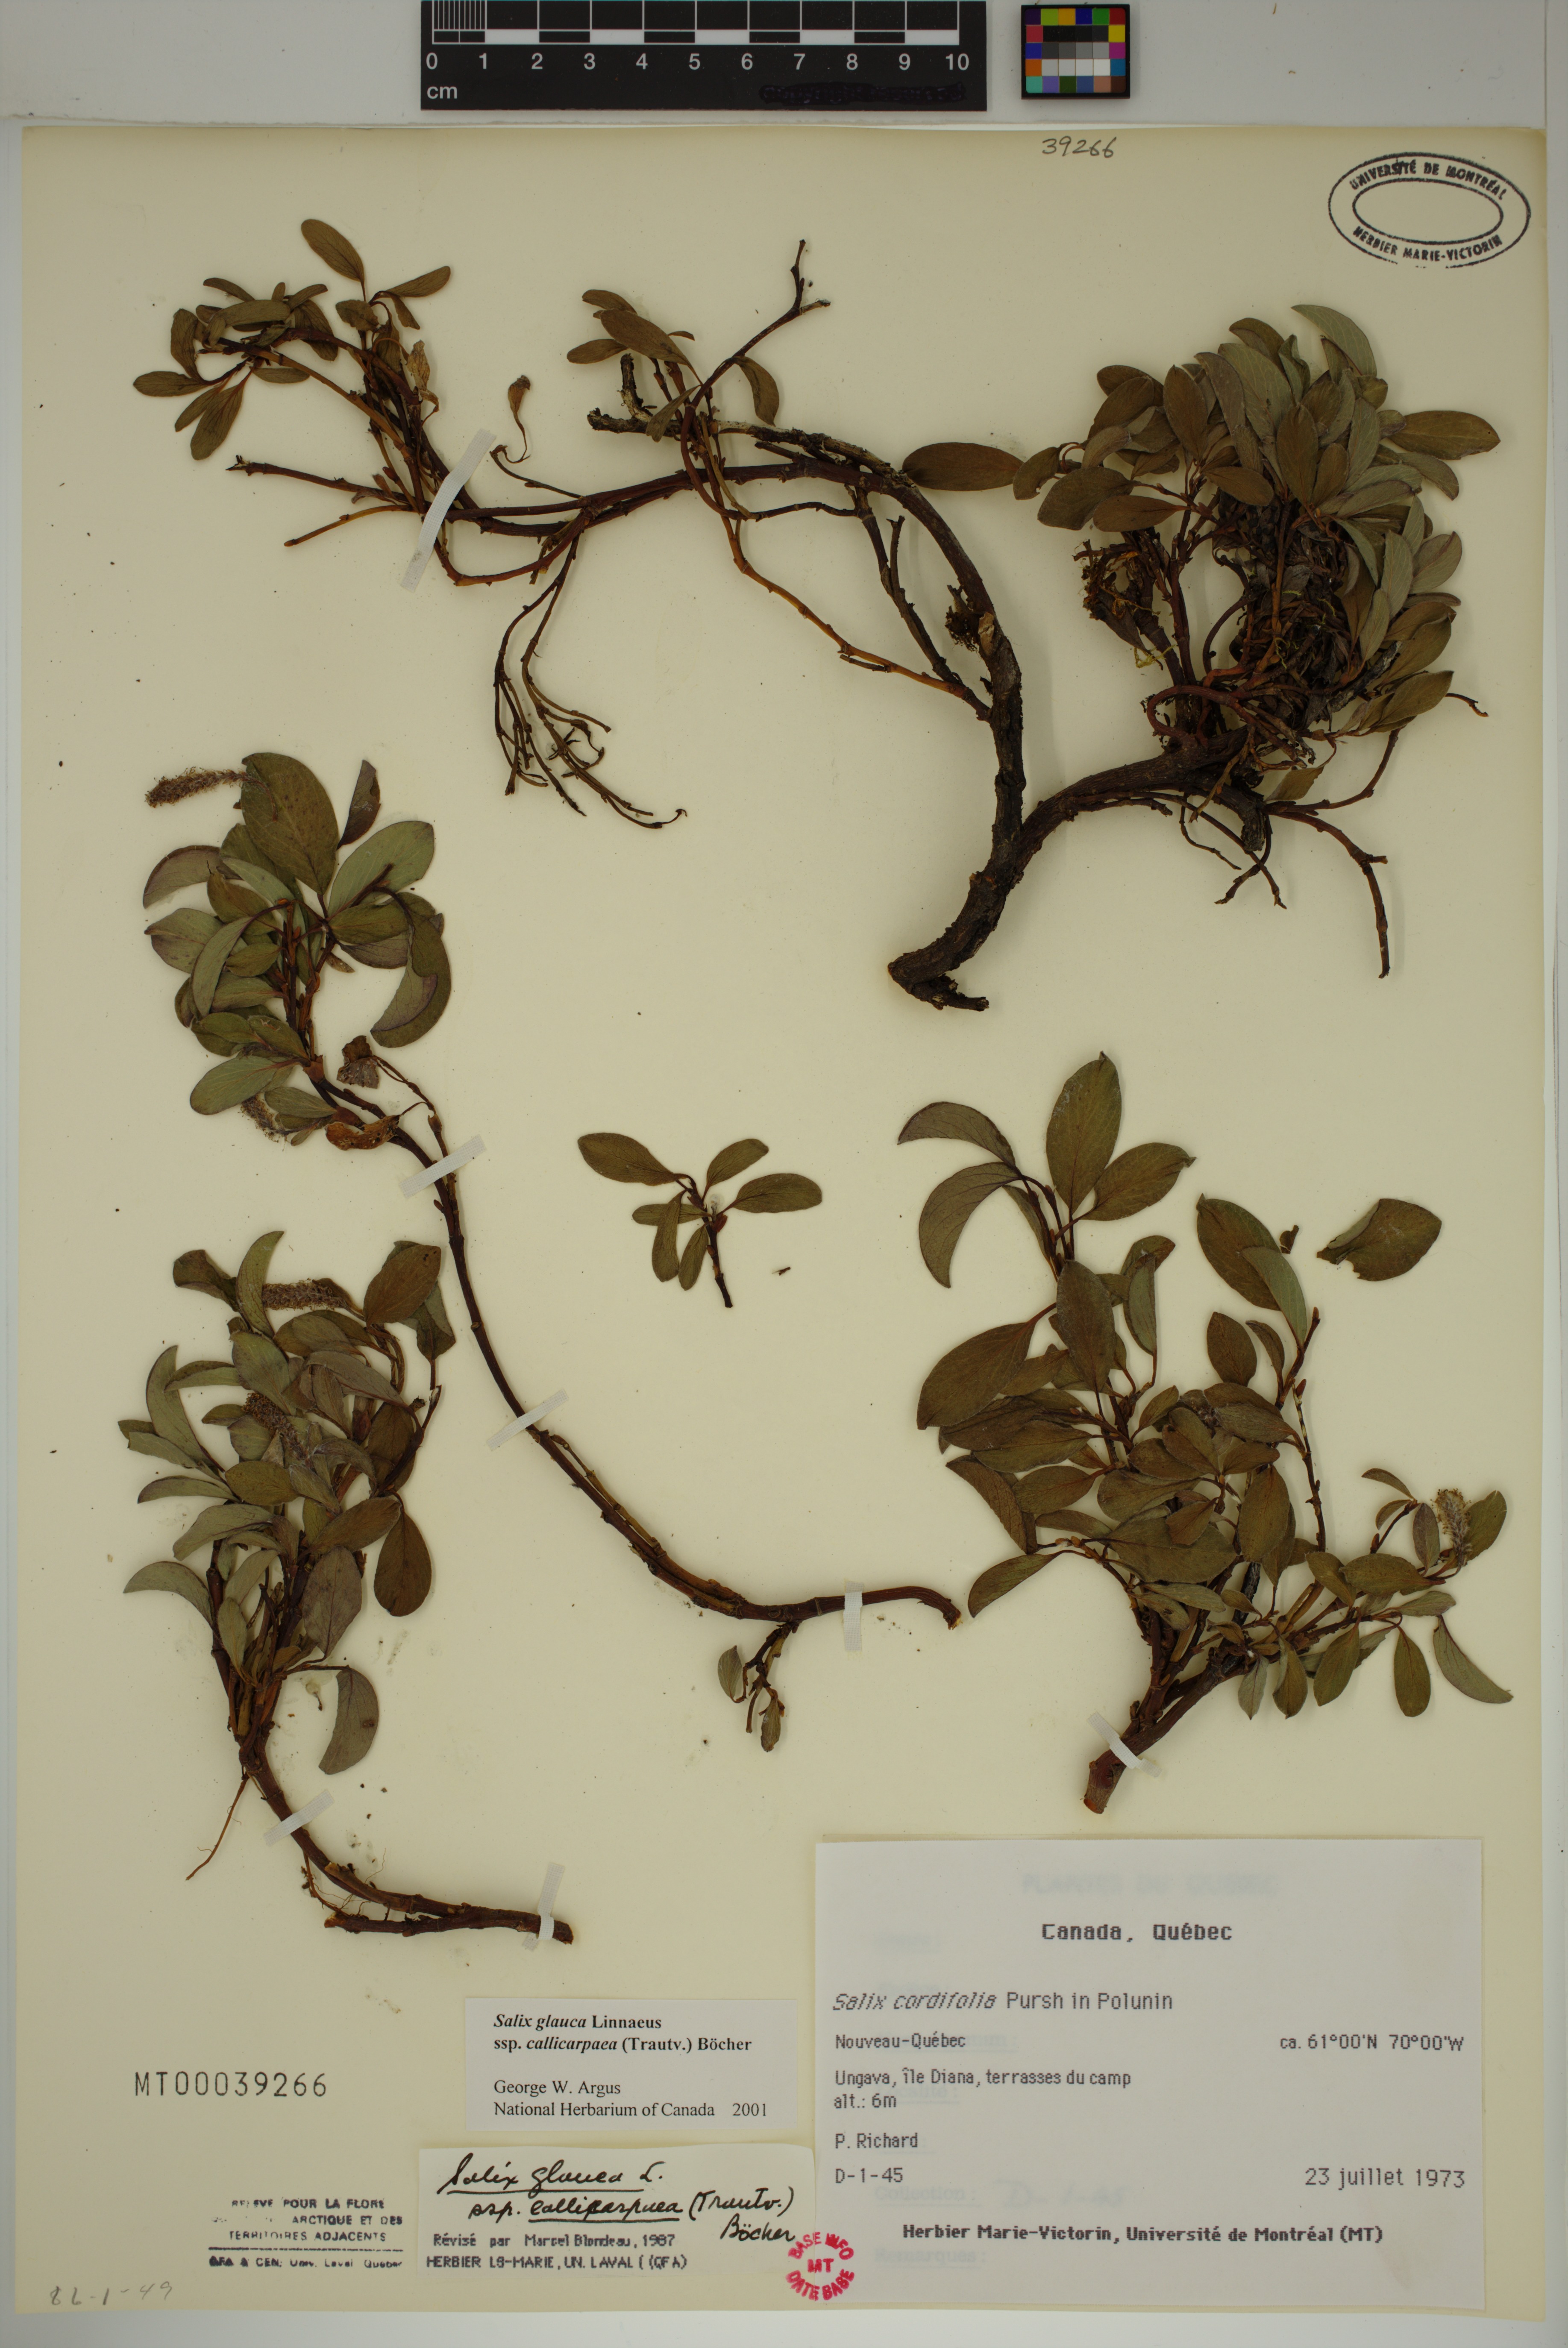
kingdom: Plantae
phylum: Tracheophyta
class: Magnoliopsida
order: Malpighiales
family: Salicaceae
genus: Salix
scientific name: Salix glauca
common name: Glaucous willow
